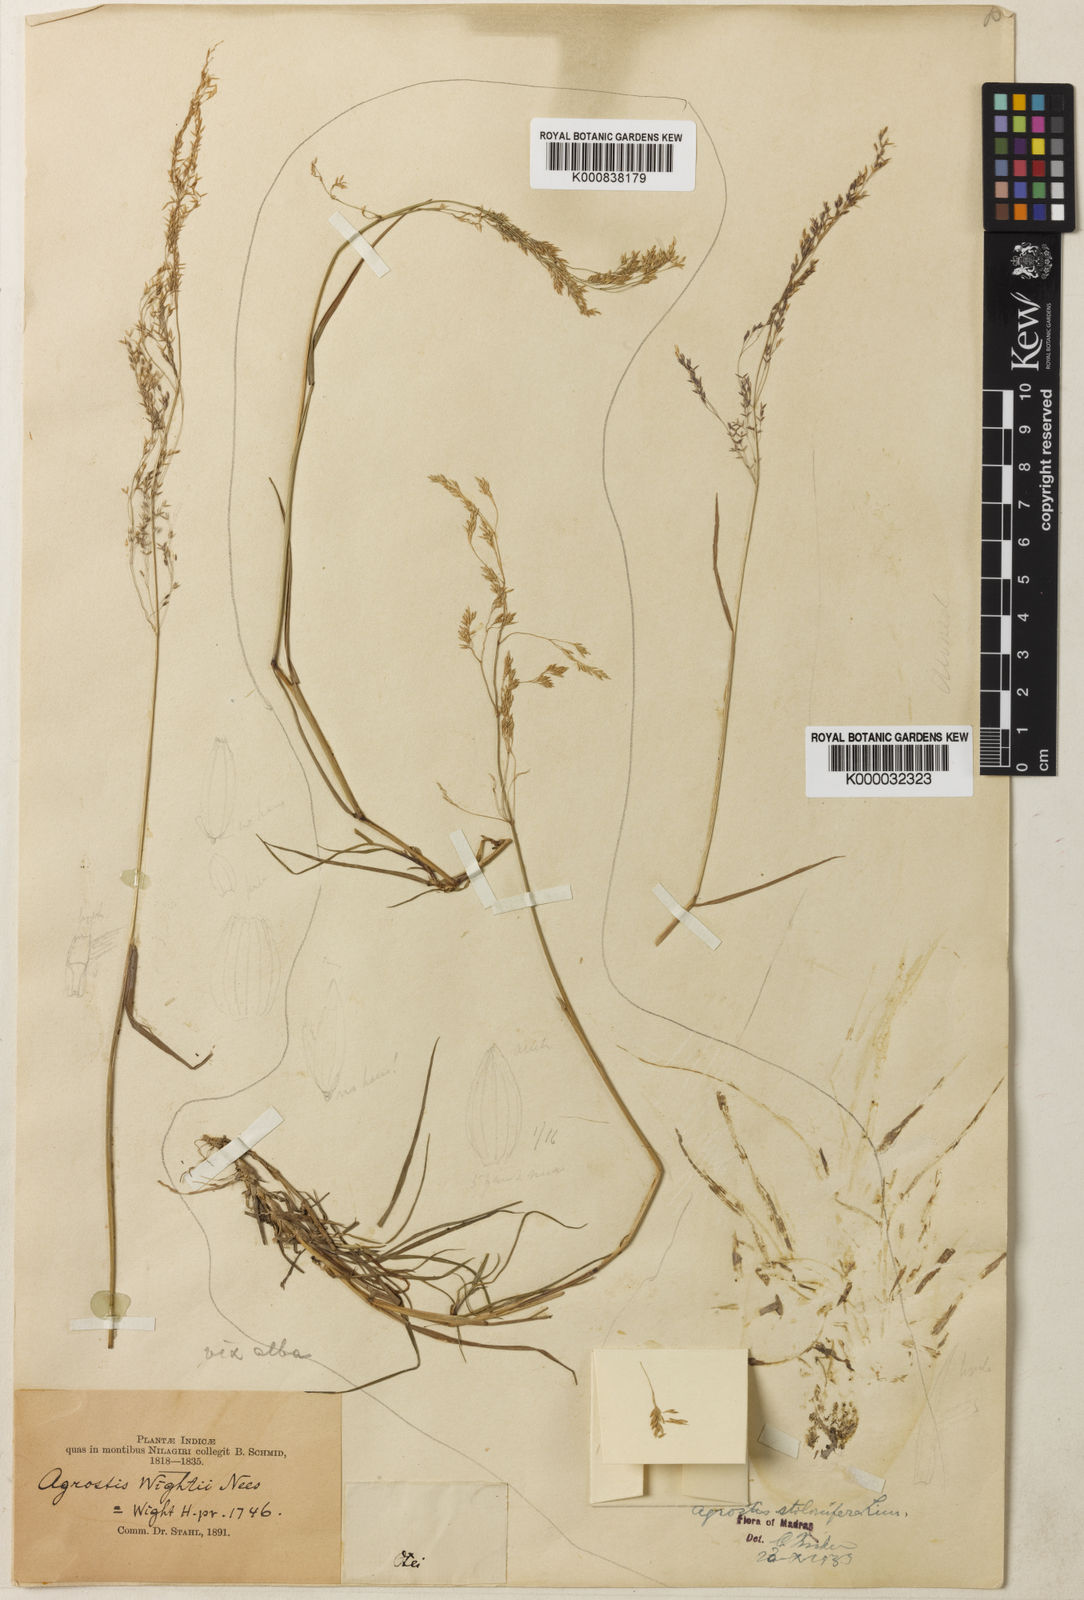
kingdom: Plantae
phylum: Tracheophyta
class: Liliopsida
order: Poales
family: Poaceae
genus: Agrostis
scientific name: Agrostis gigantea
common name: Black bent
